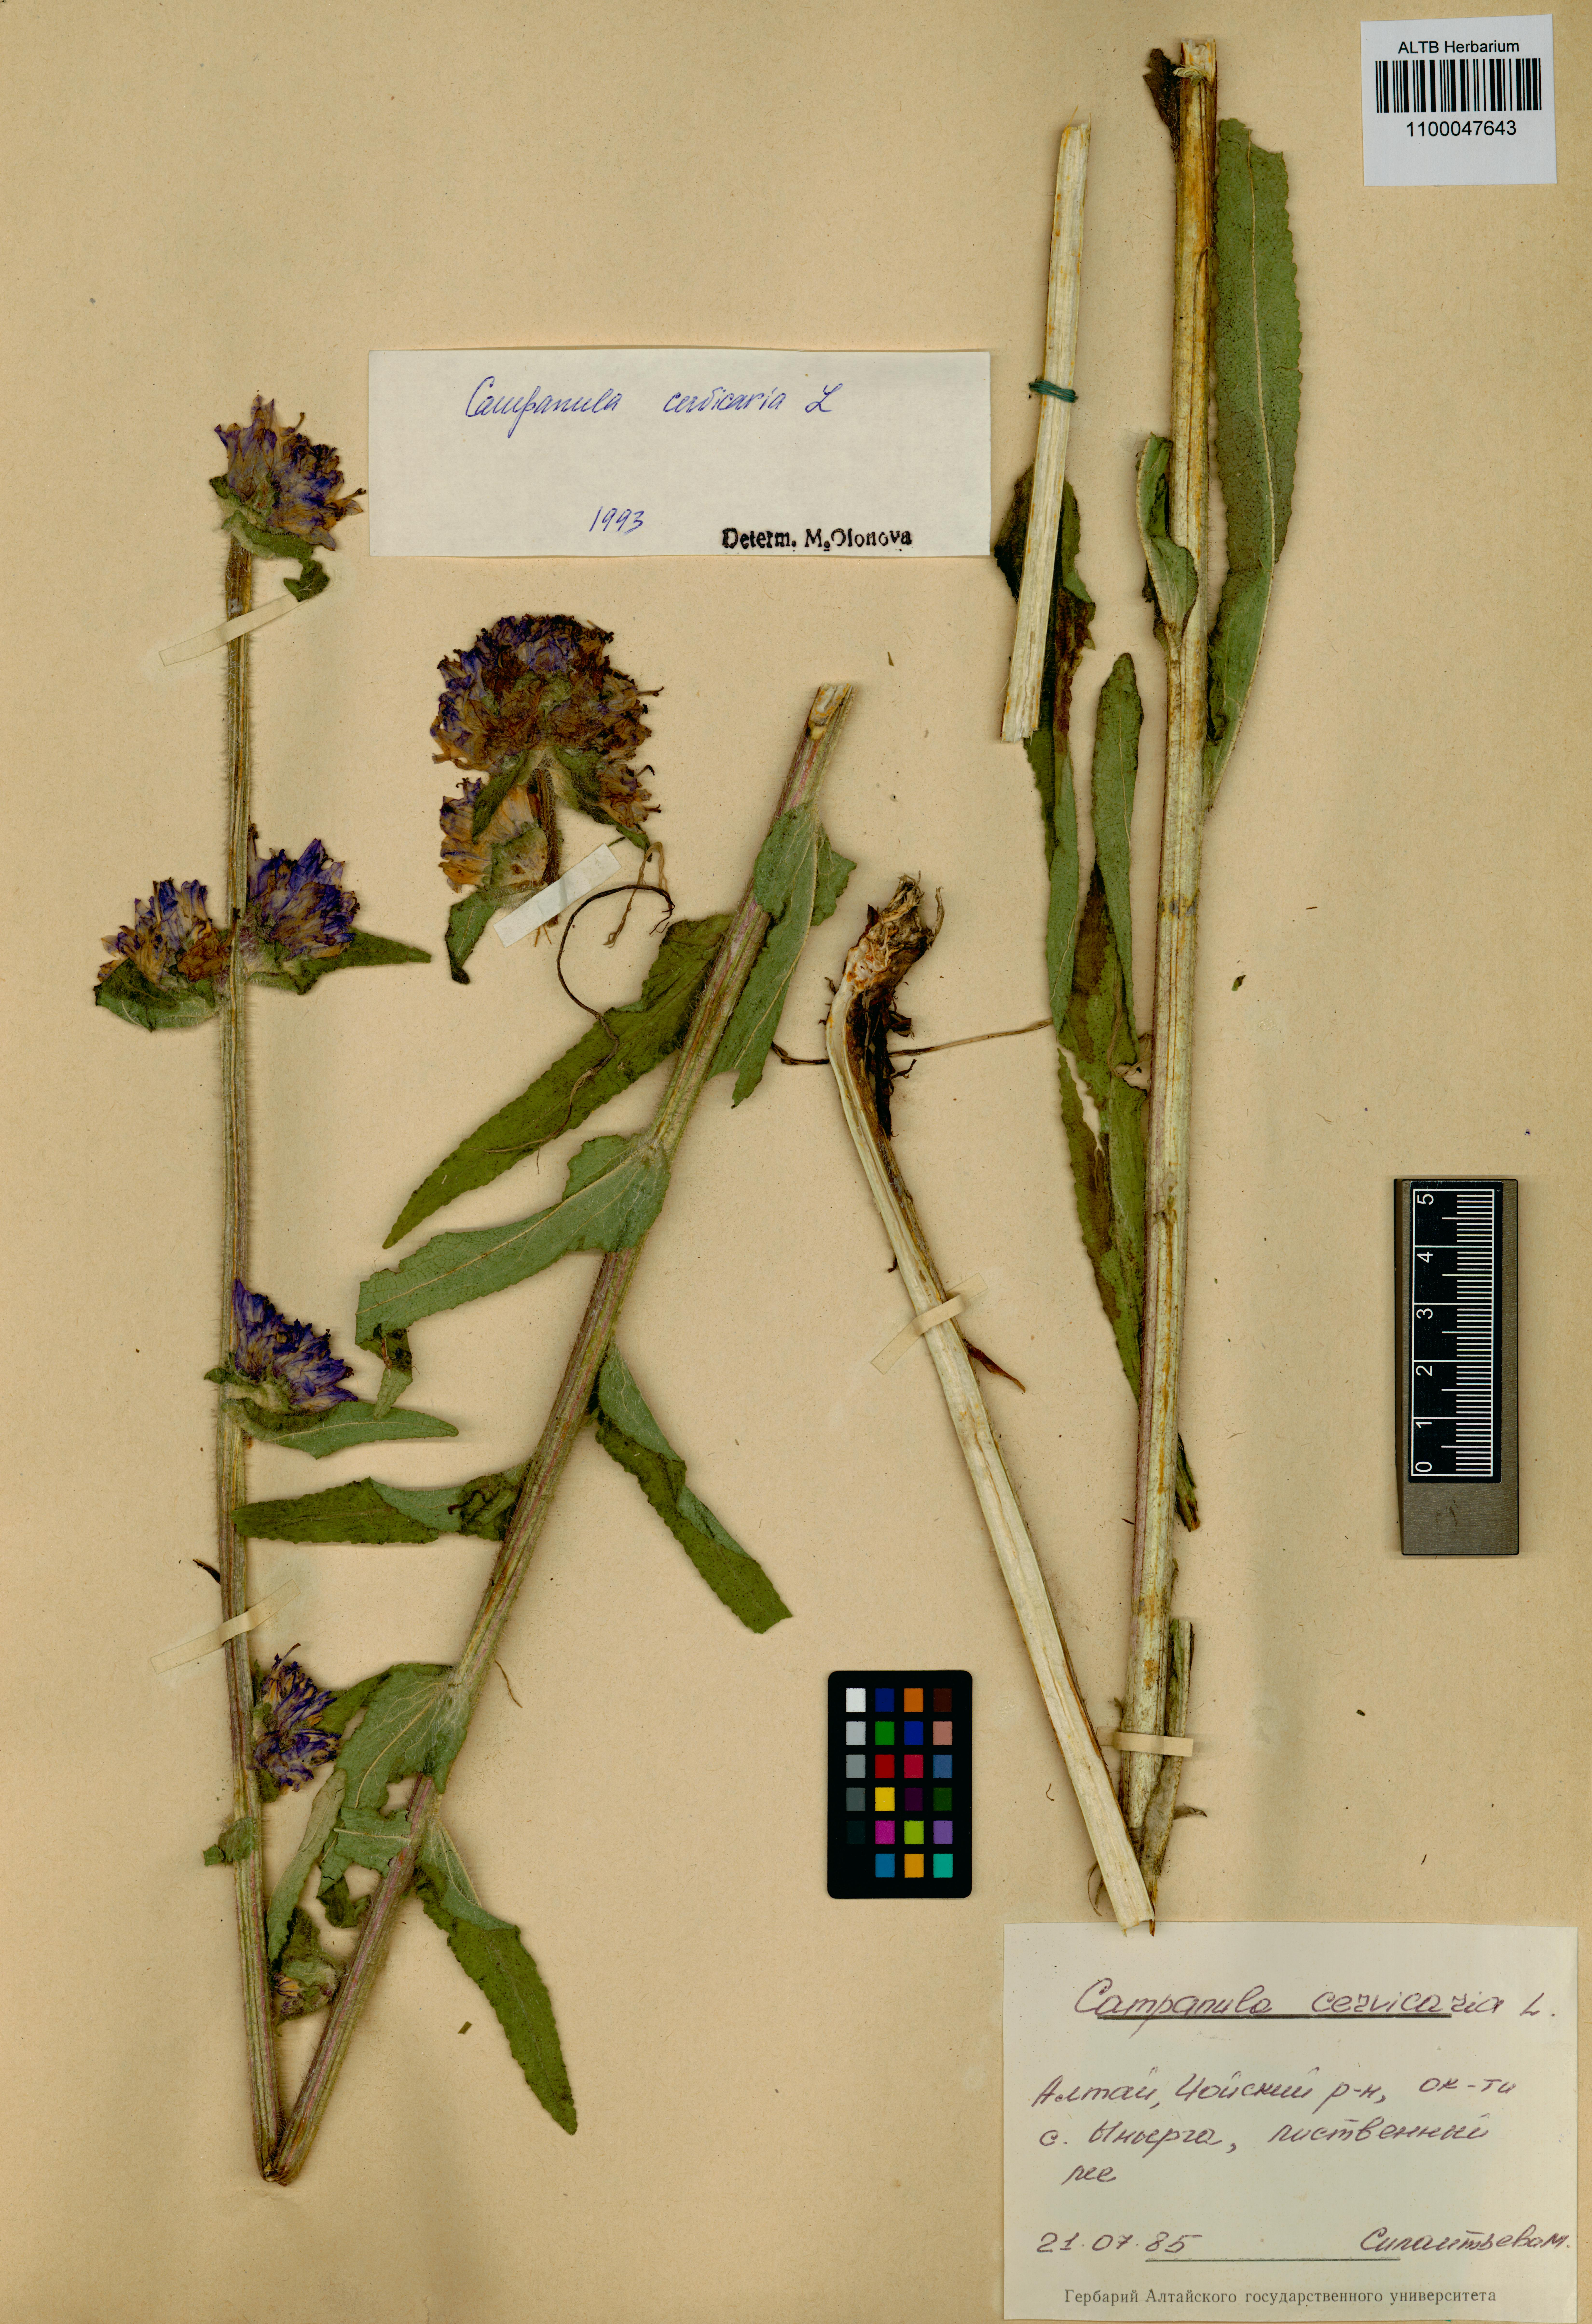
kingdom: Plantae
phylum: Tracheophyta
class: Magnoliopsida
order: Asterales
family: Campanulaceae
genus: Campanula
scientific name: Campanula cervicaria
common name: Bristly bellflower
